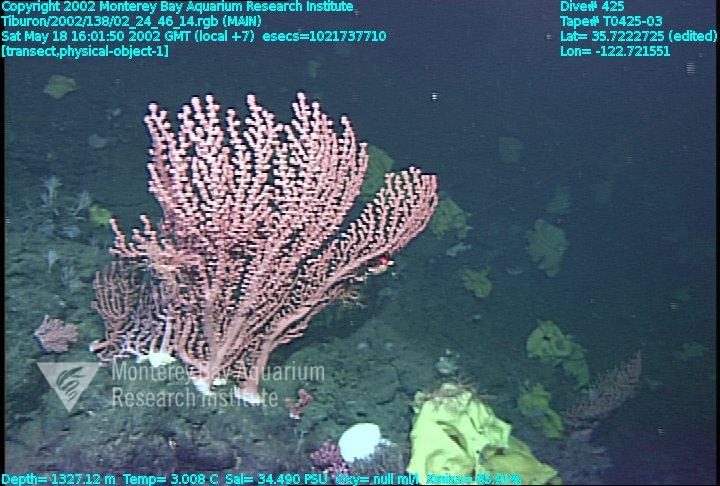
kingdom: Animalia
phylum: Porifera
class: Hexactinellida
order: Lyssacinosida
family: Rossellidae
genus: Staurocalyptus
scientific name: Staurocalyptus
